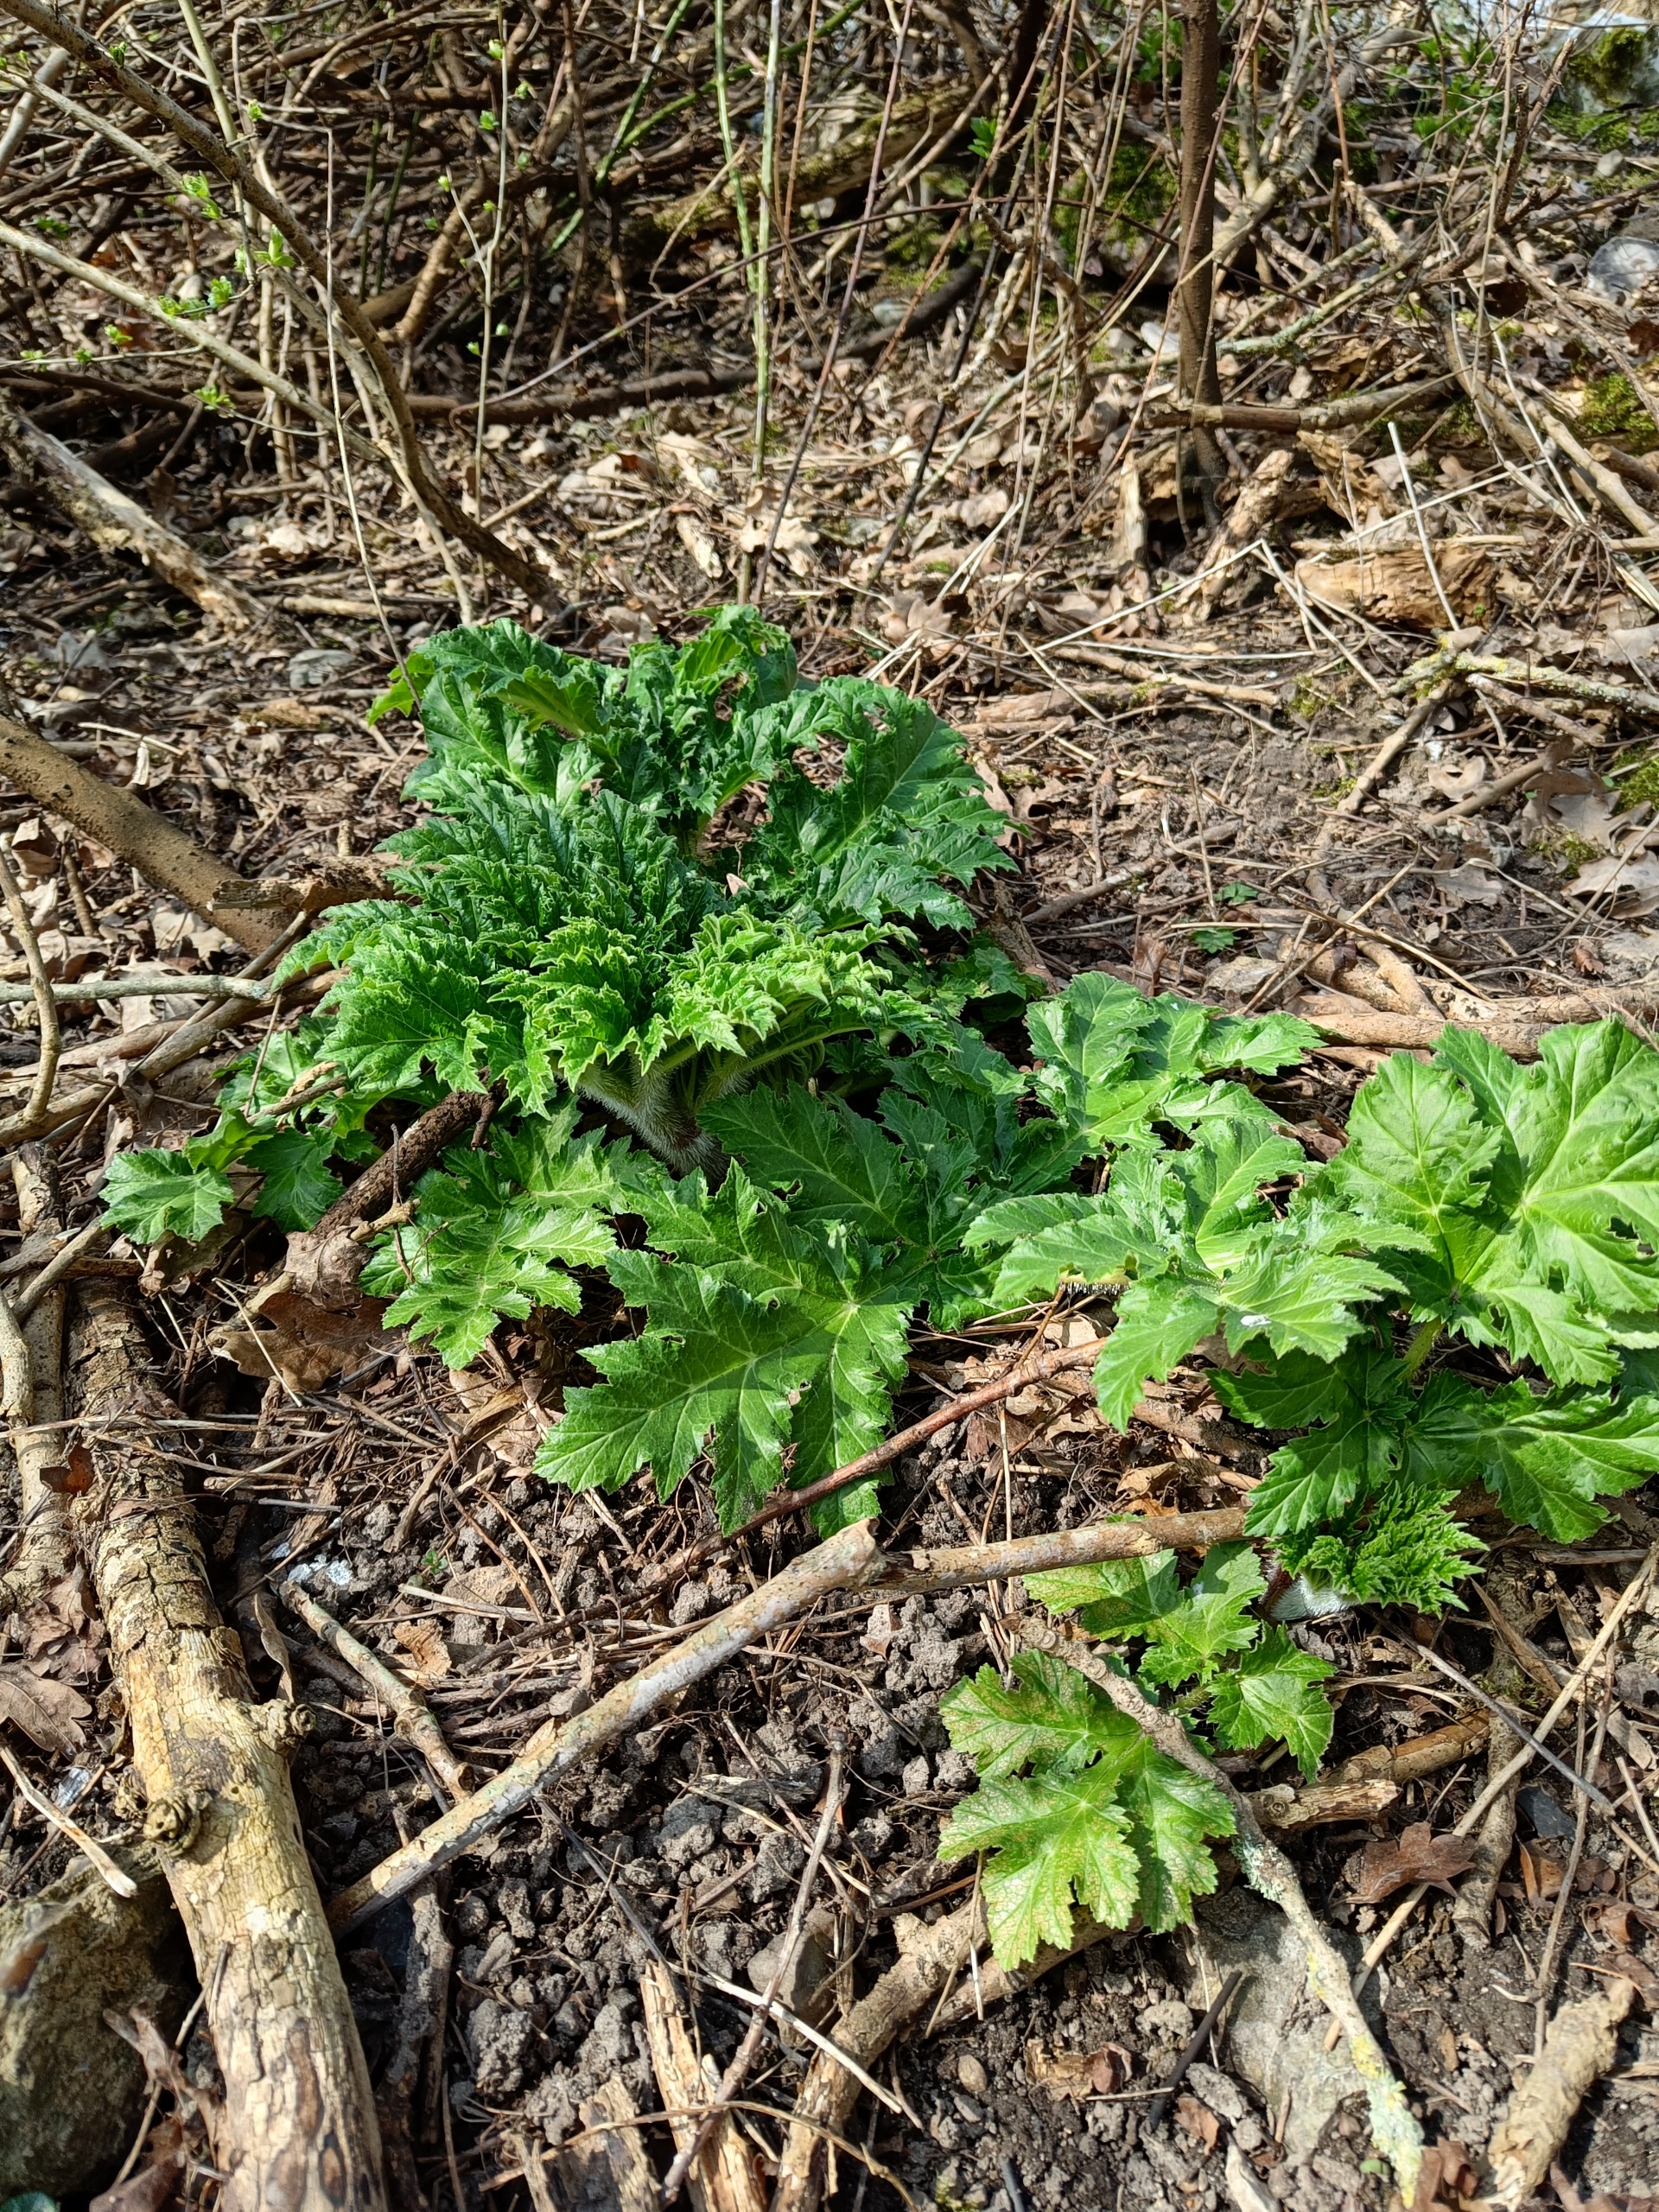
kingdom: Plantae
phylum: Tracheophyta
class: Magnoliopsida
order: Apiales
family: Apiaceae
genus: Heracleum
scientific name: Heracleum mantegazzianum
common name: Kæmpe-bjørneklo
